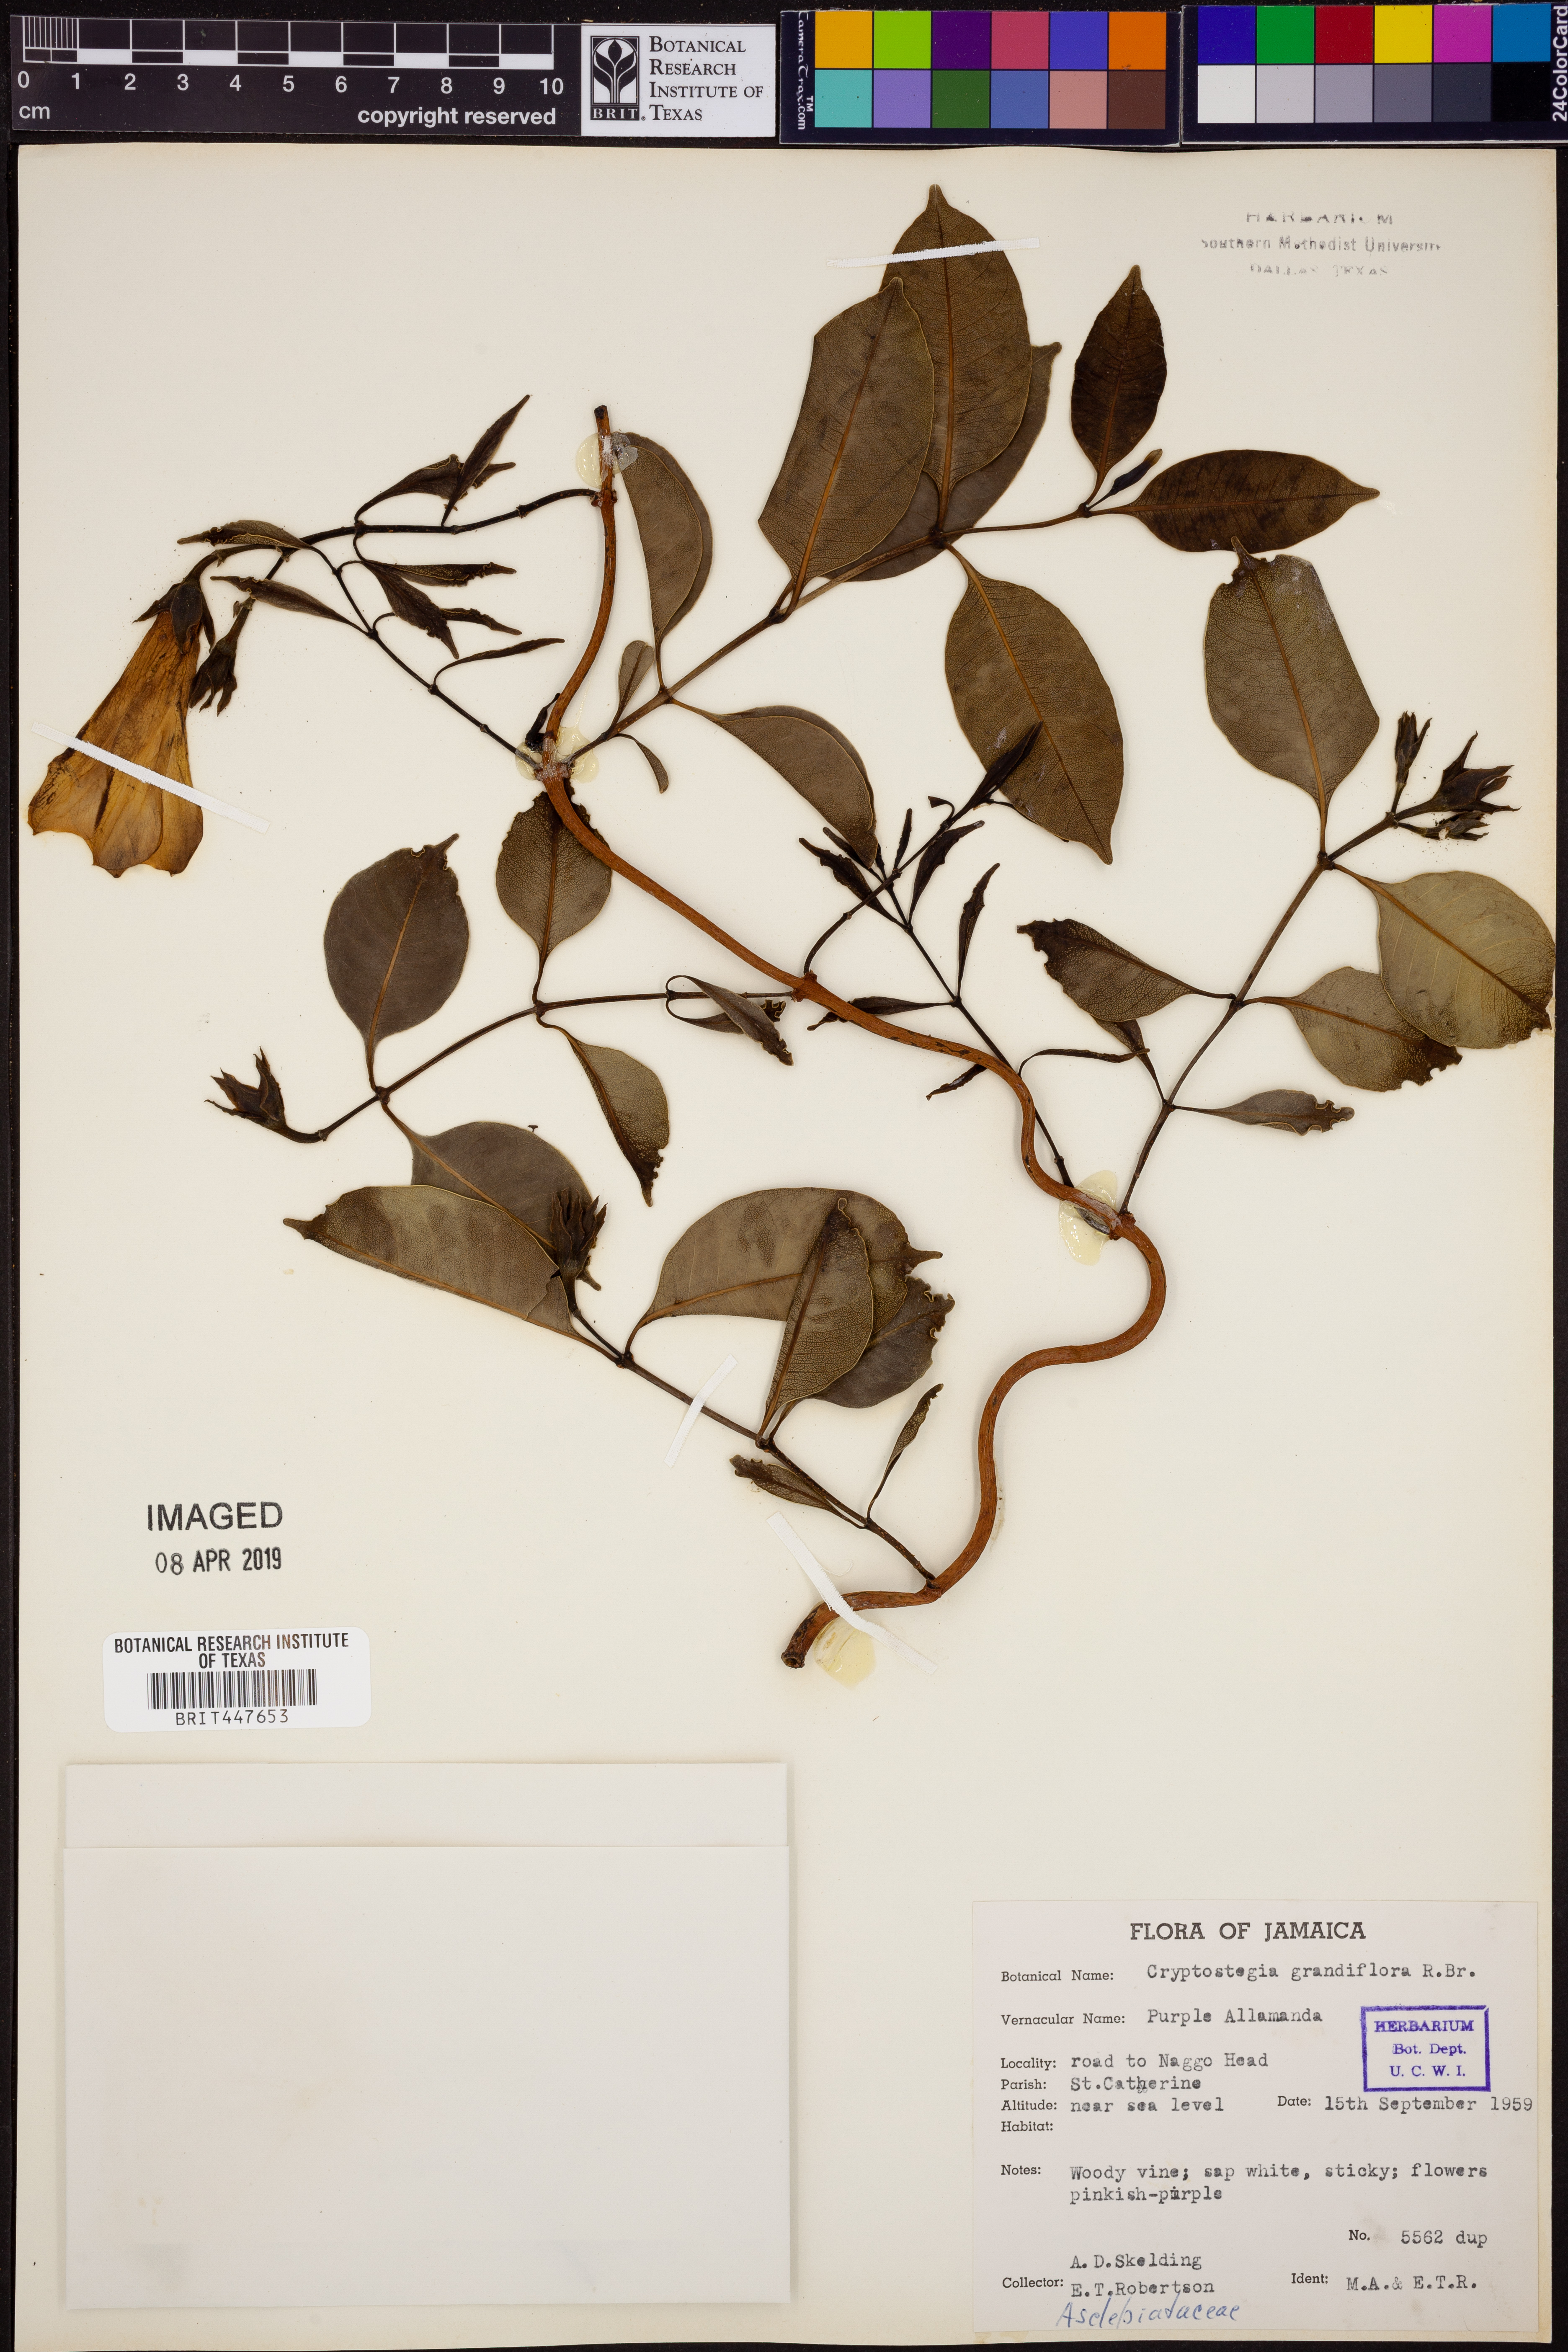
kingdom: Plantae
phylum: Tracheophyta
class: Magnoliopsida
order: Gentianales
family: Apocynaceae
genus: Cryptostegia
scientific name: Cryptostegia grandiflora
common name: Palay rubbervine
